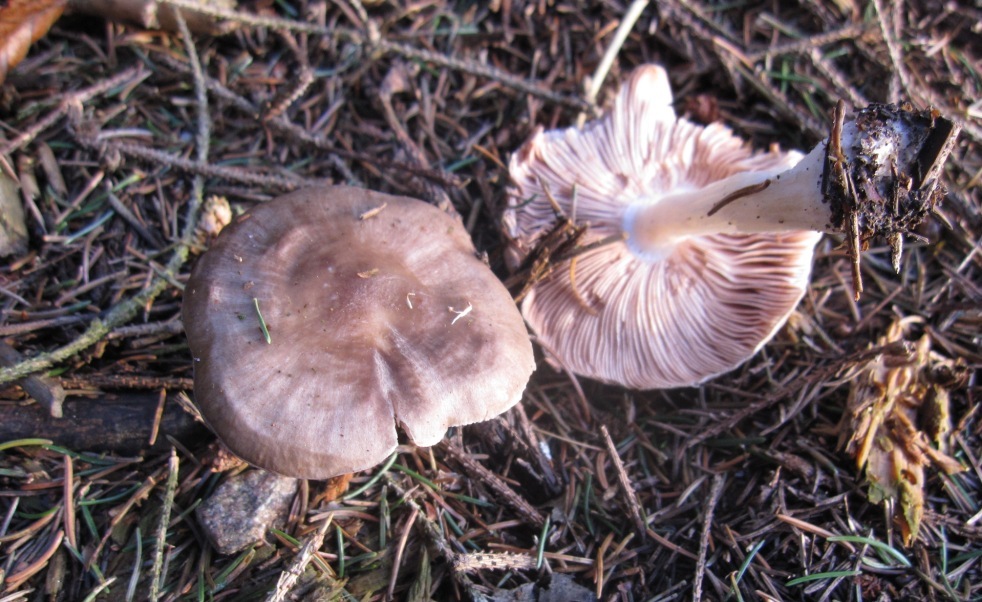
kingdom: Fungi
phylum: Basidiomycota
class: Agaricomycetes
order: Agaricales
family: Pluteaceae
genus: Pluteus
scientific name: Pluteus cervinus
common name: sodfarvet skærmhat
